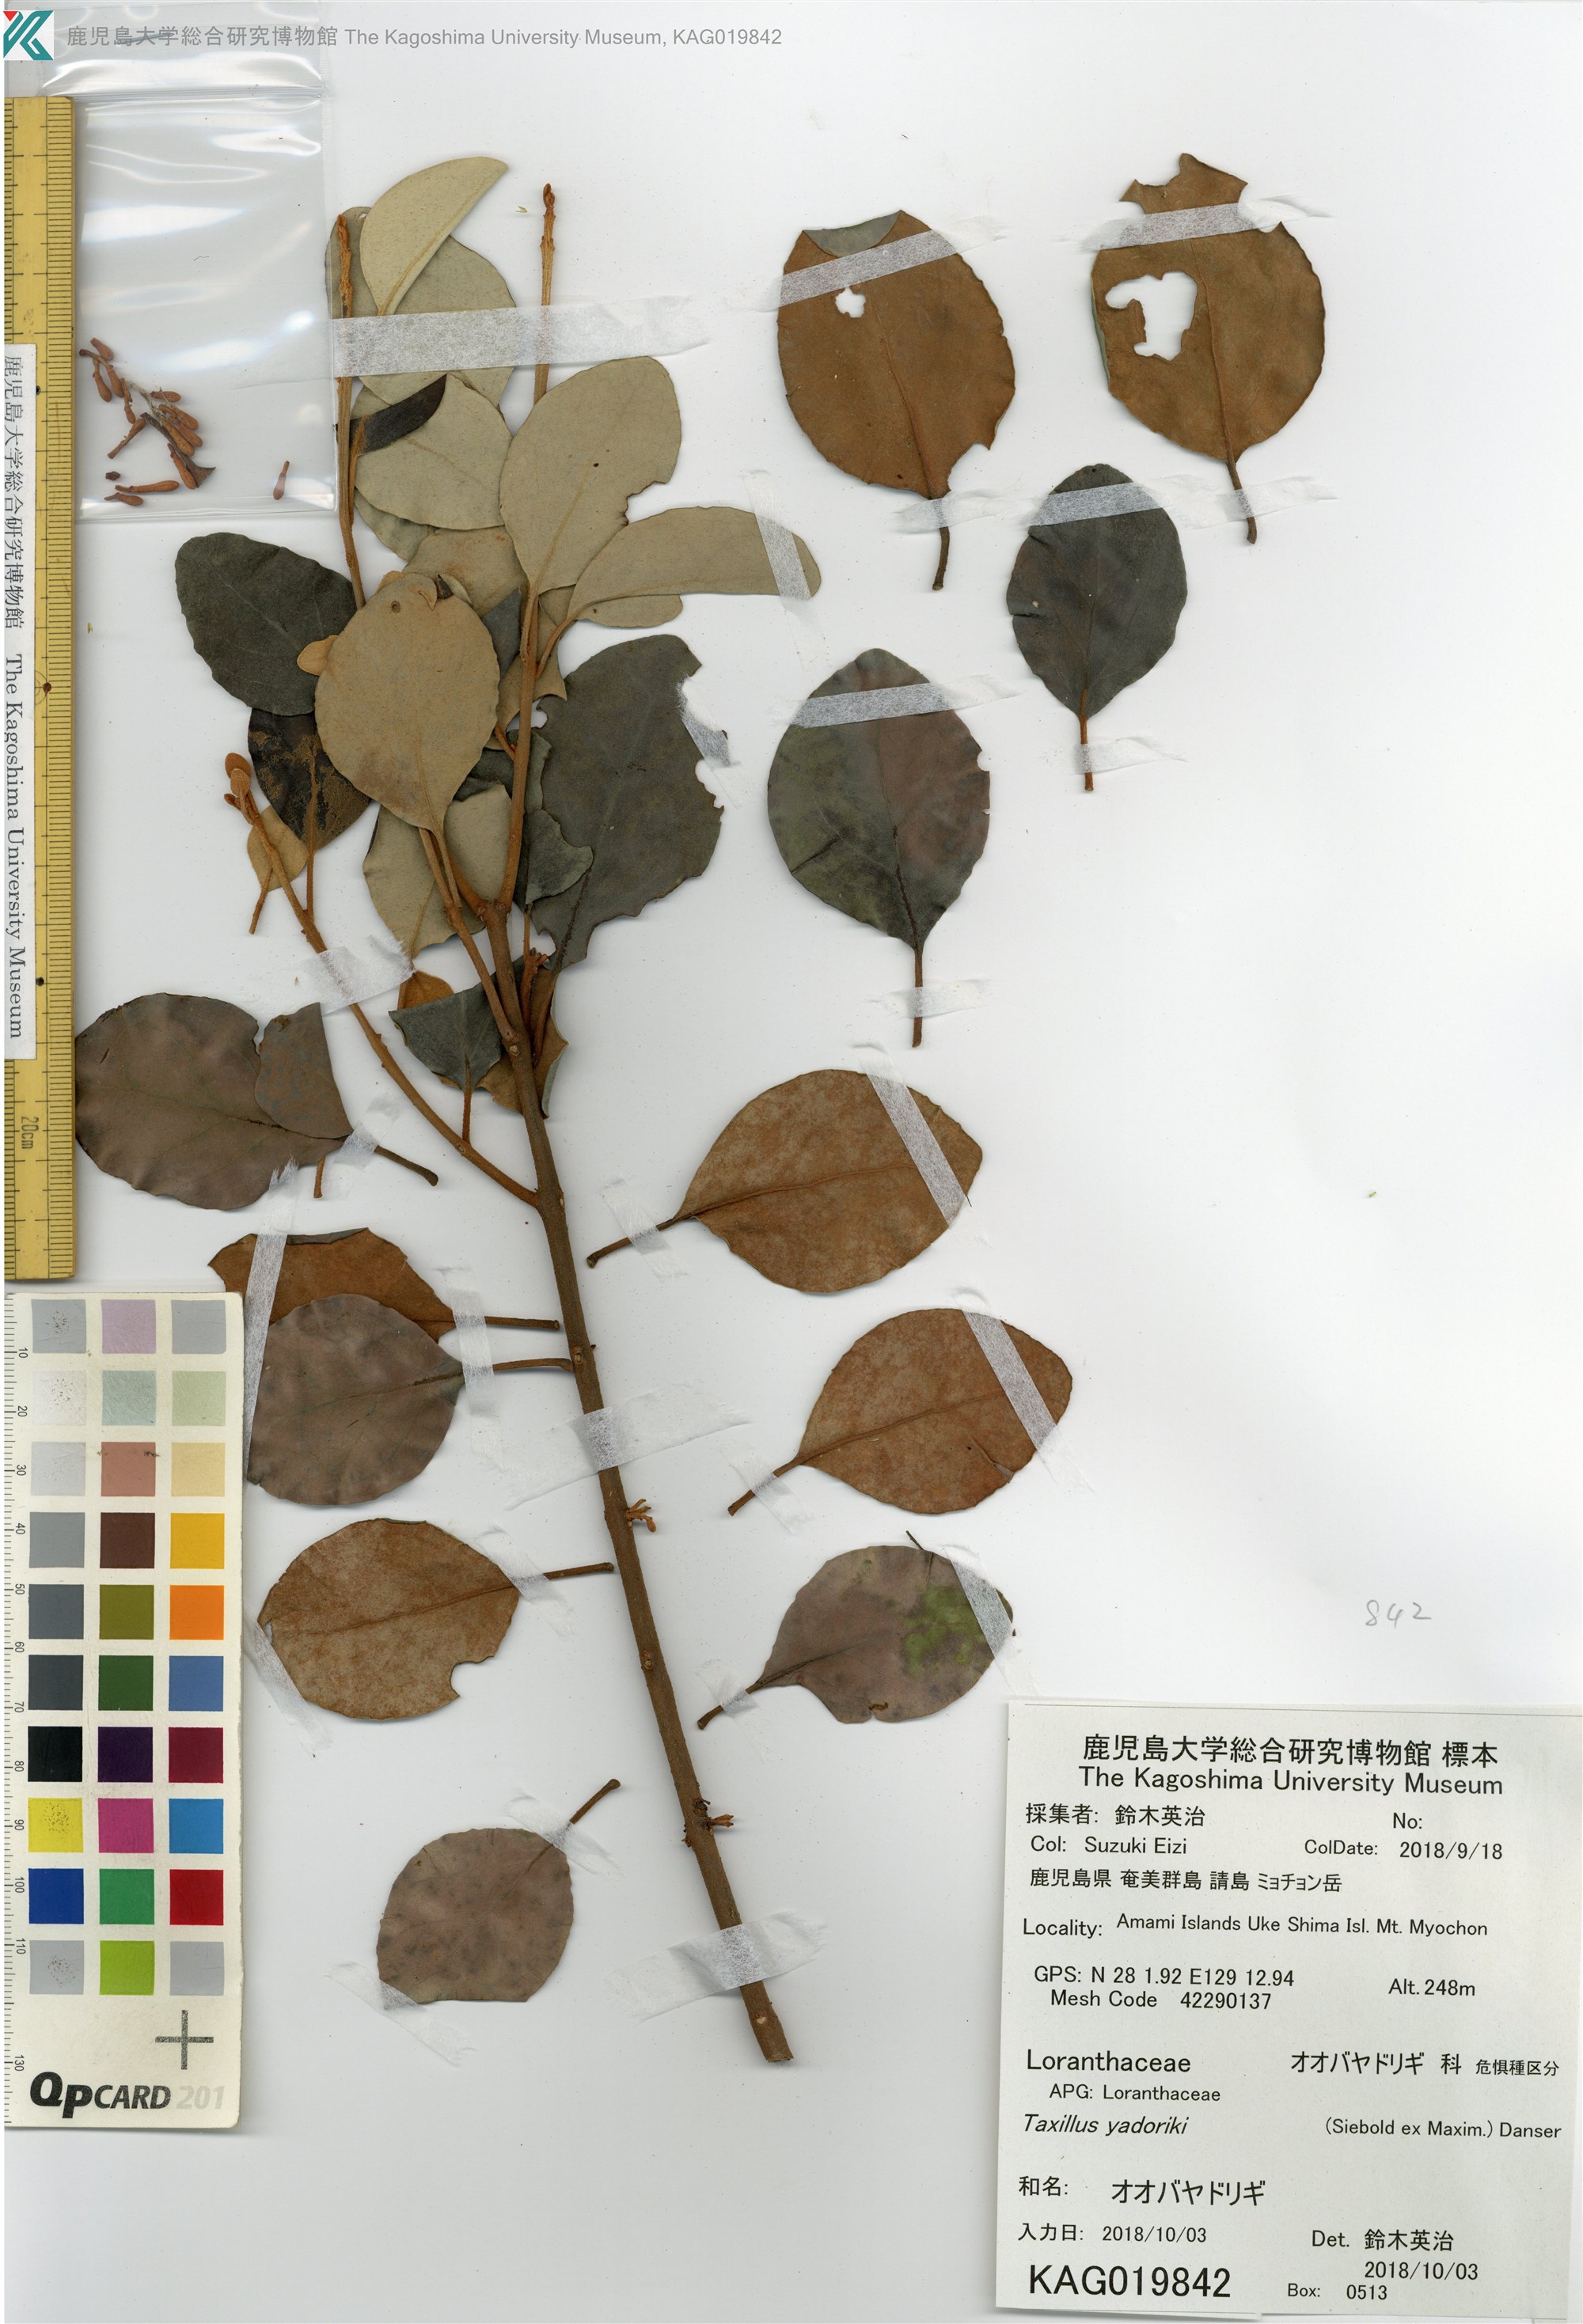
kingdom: Plantae
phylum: Tracheophyta
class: Magnoliopsida
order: Santalales
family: Loranthaceae
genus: Taxillus
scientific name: Taxillus sutchuenensis
